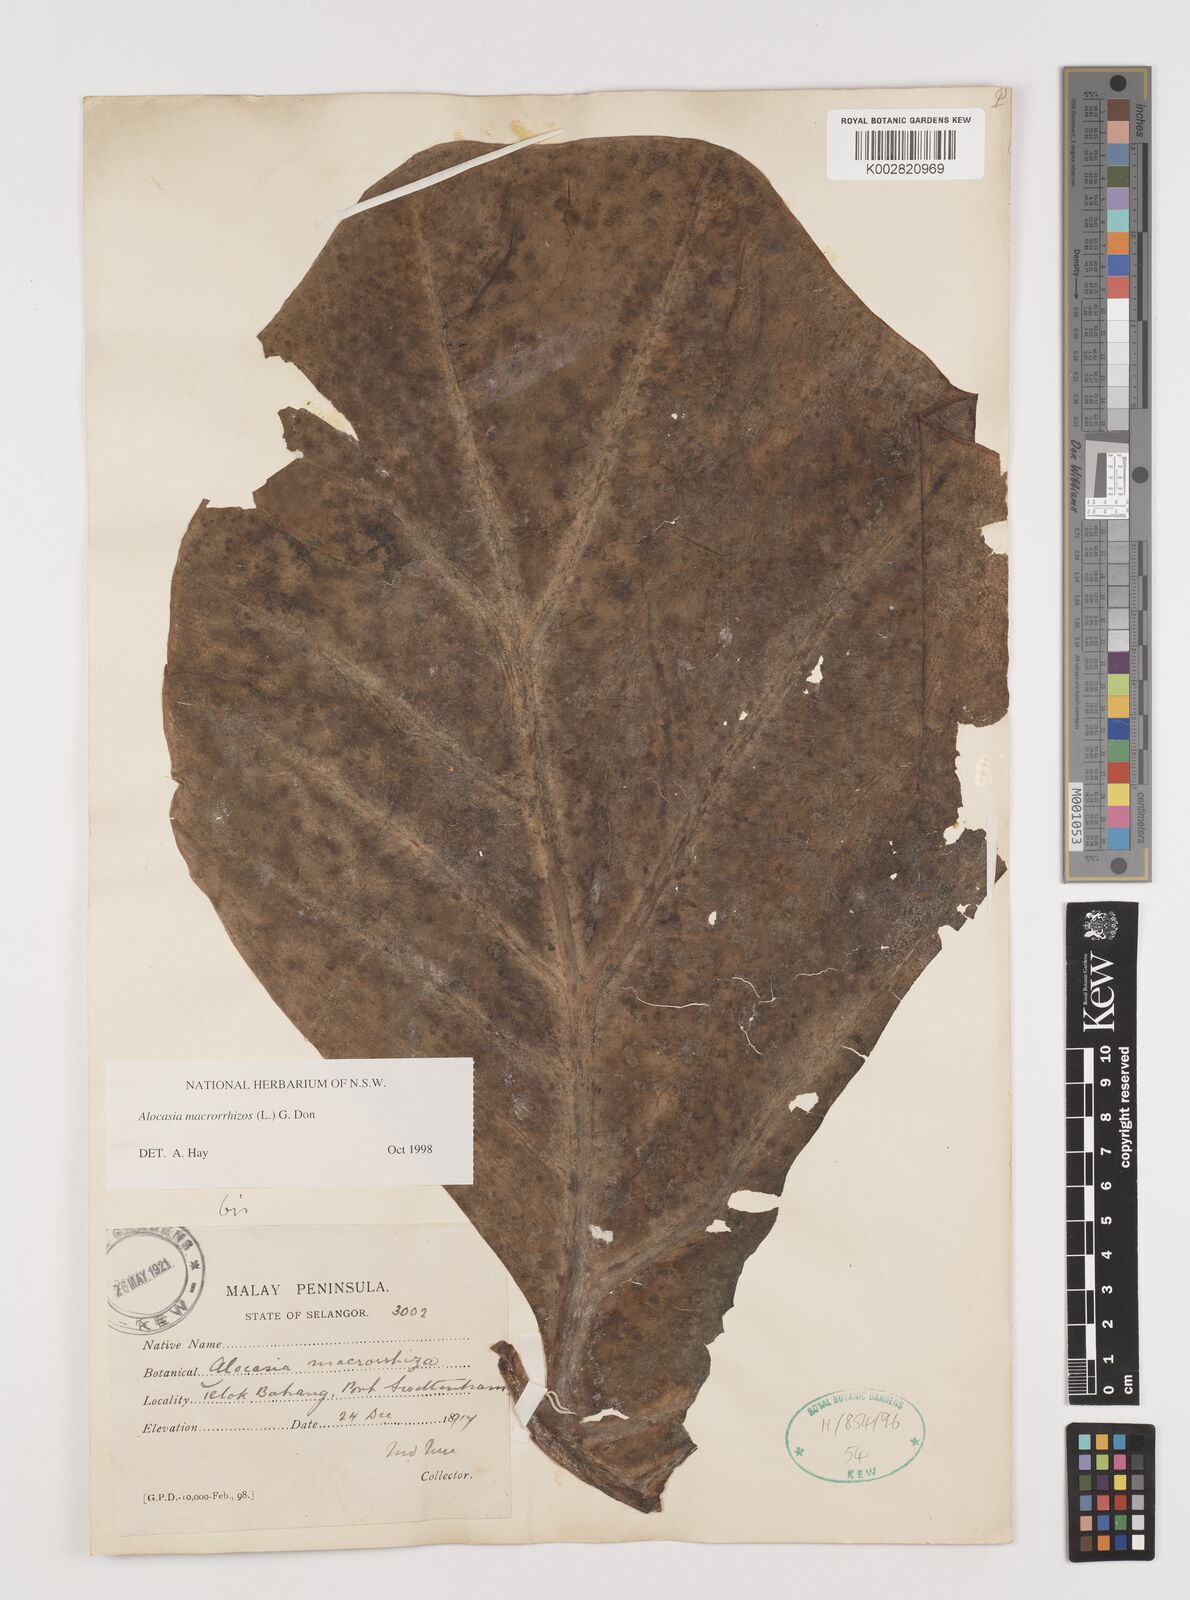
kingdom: Plantae
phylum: Tracheophyta
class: Liliopsida
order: Alismatales
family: Araceae
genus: Alocasia
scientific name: Alocasia macrorrhizos
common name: Giant taro
